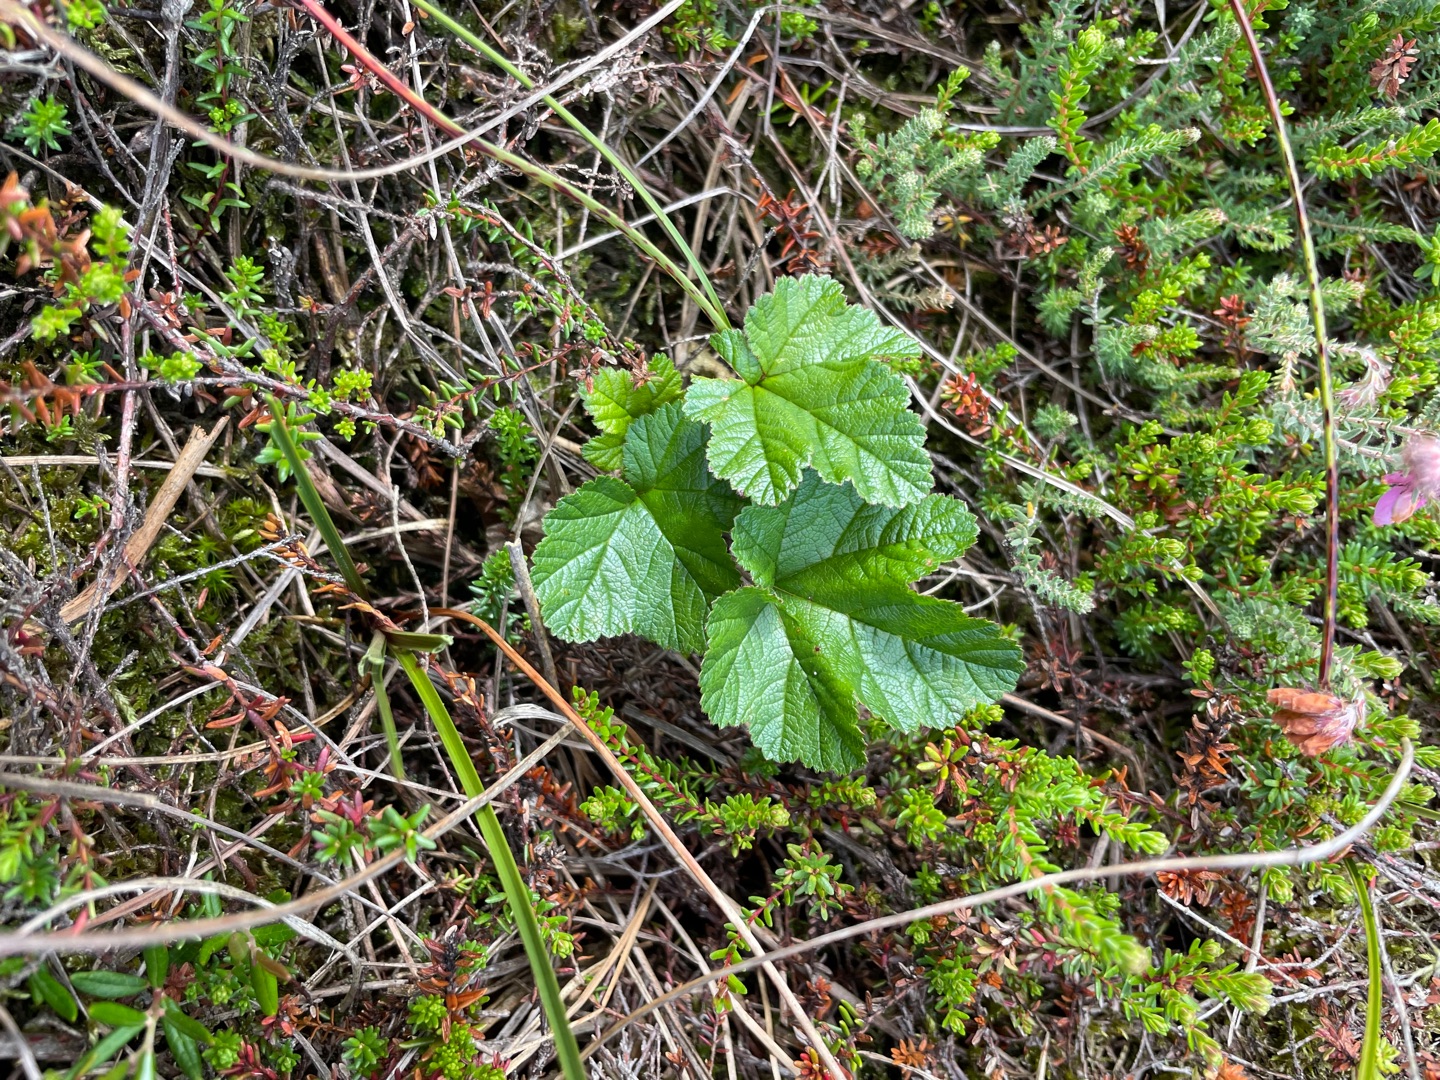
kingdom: Plantae
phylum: Tracheophyta
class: Magnoliopsida
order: Rosales
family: Rosaceae
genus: Rubus
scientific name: Rubus chamaemorus
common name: Multebær
